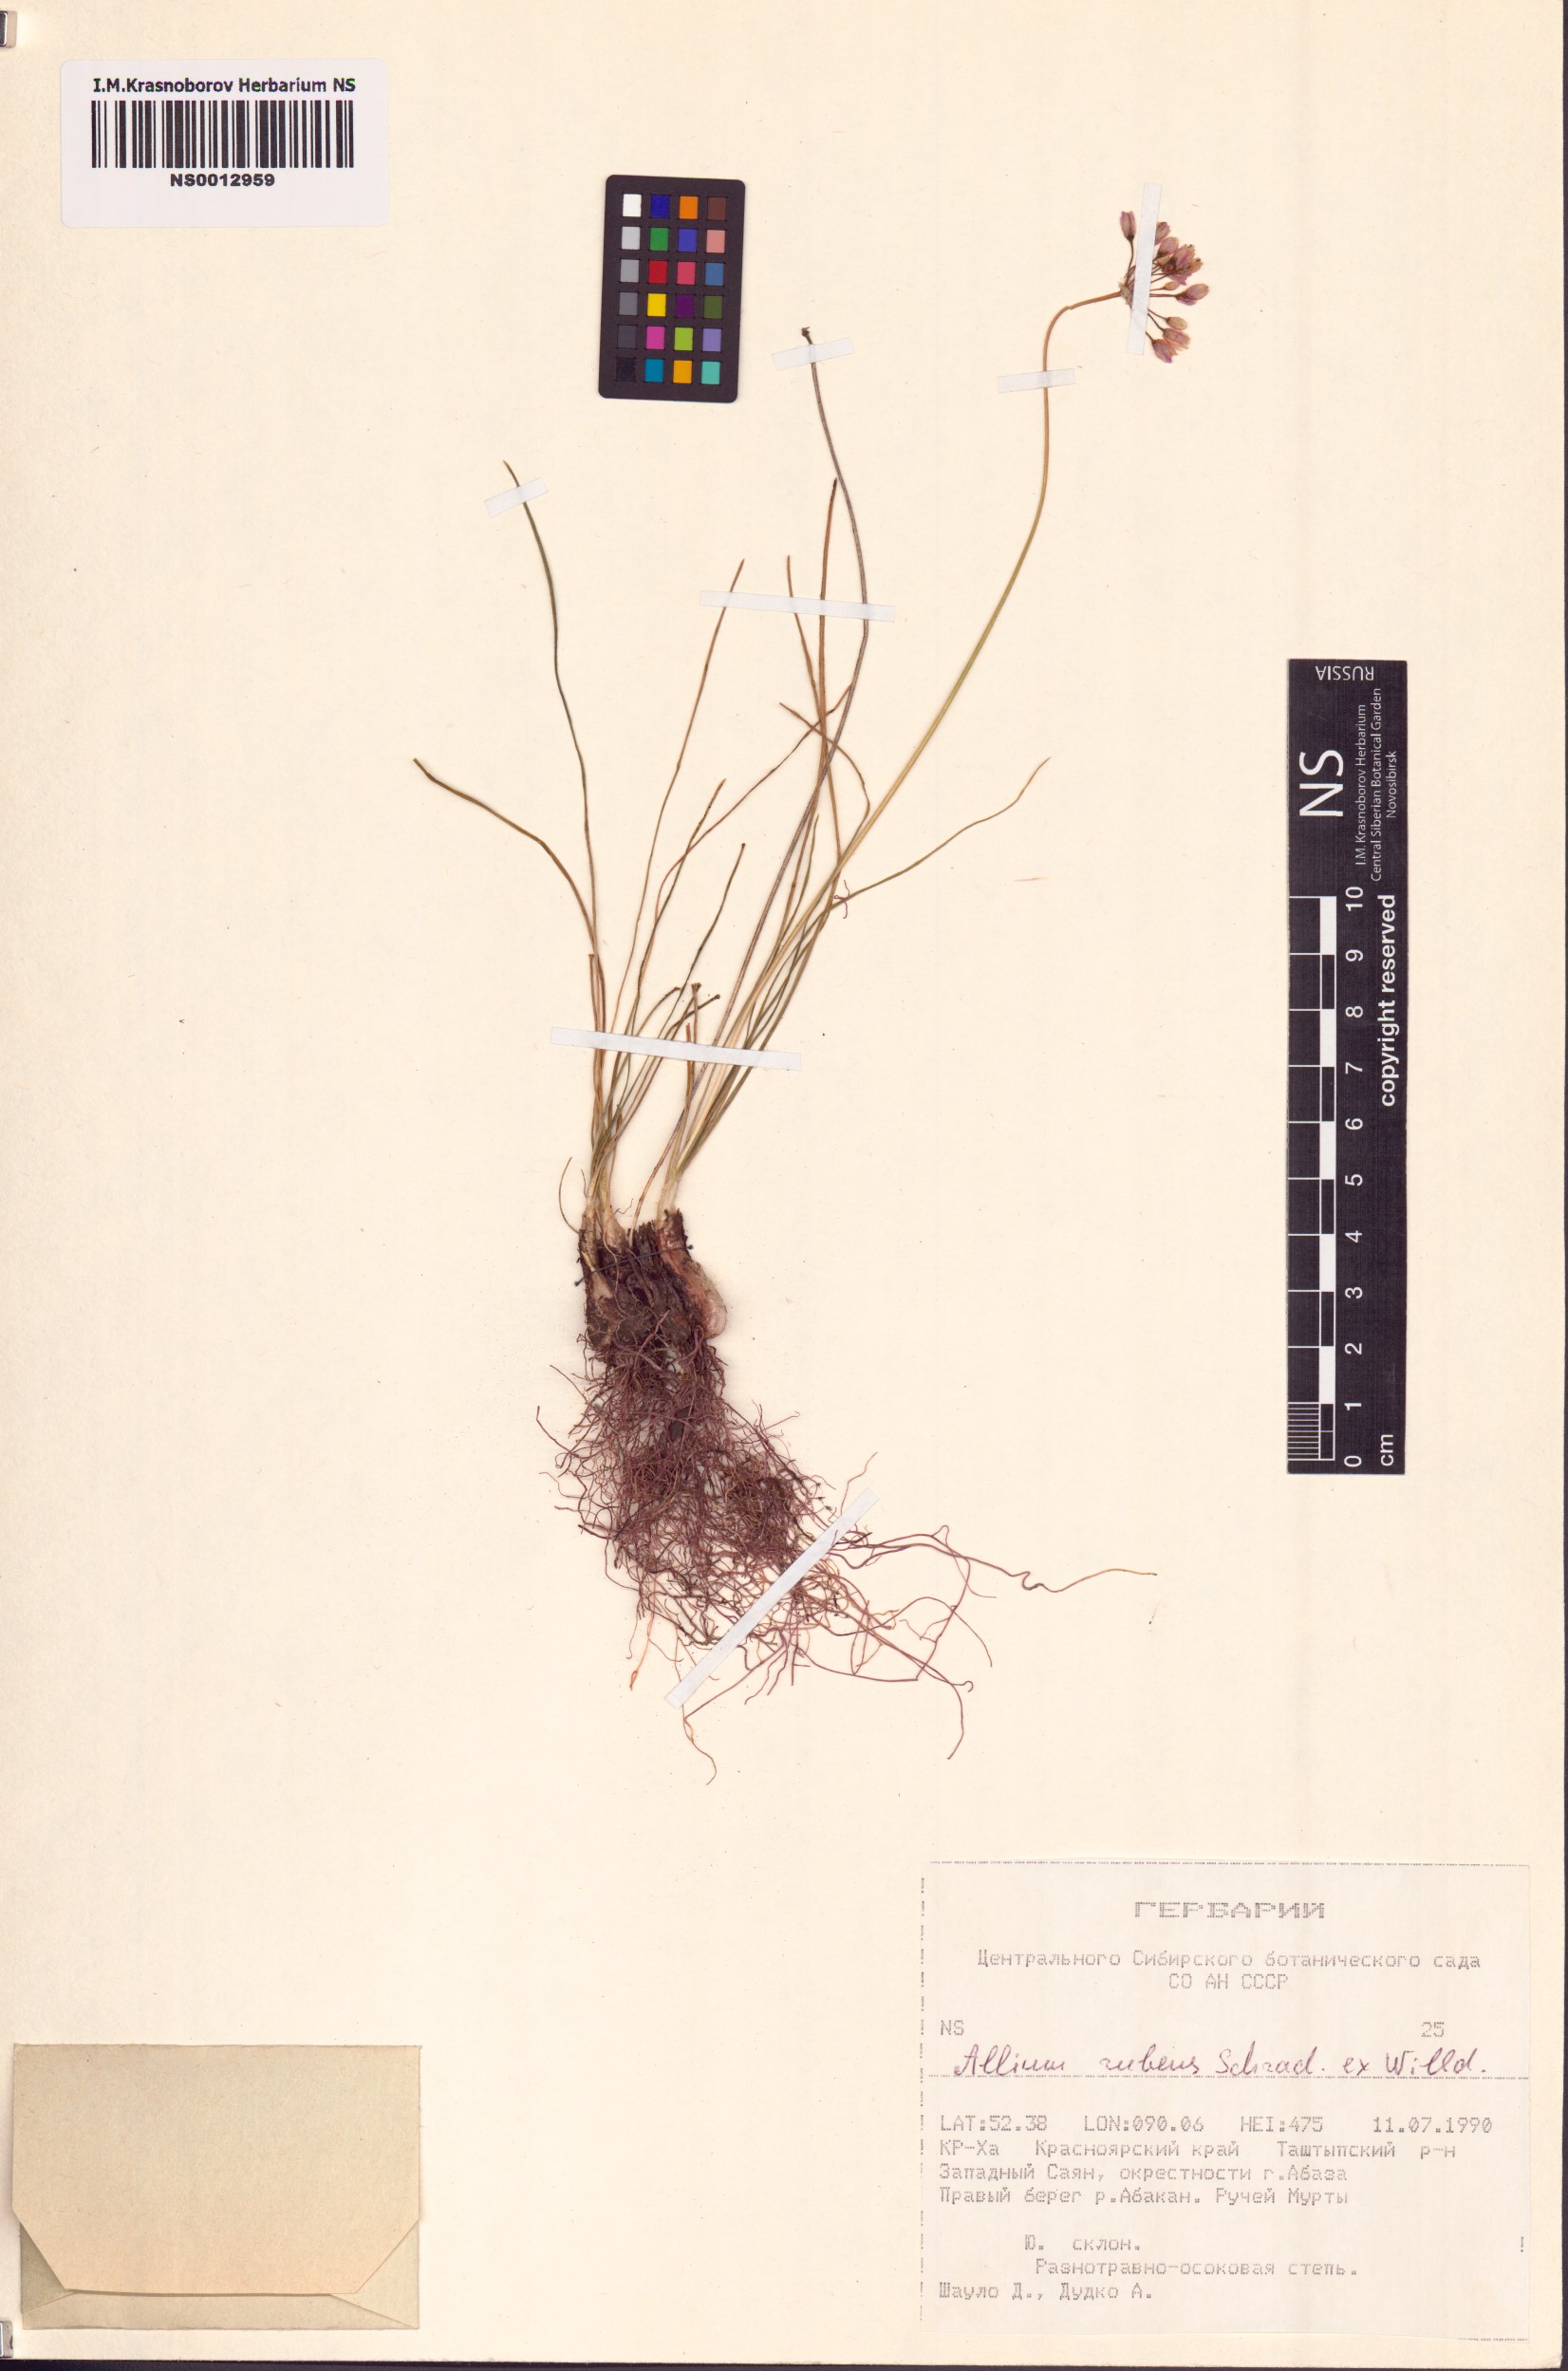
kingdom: Plantae
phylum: Tracheophyta
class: Liliopsida
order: Asparagales
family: Amaryllidaceae
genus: Allium
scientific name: Allium rubens
